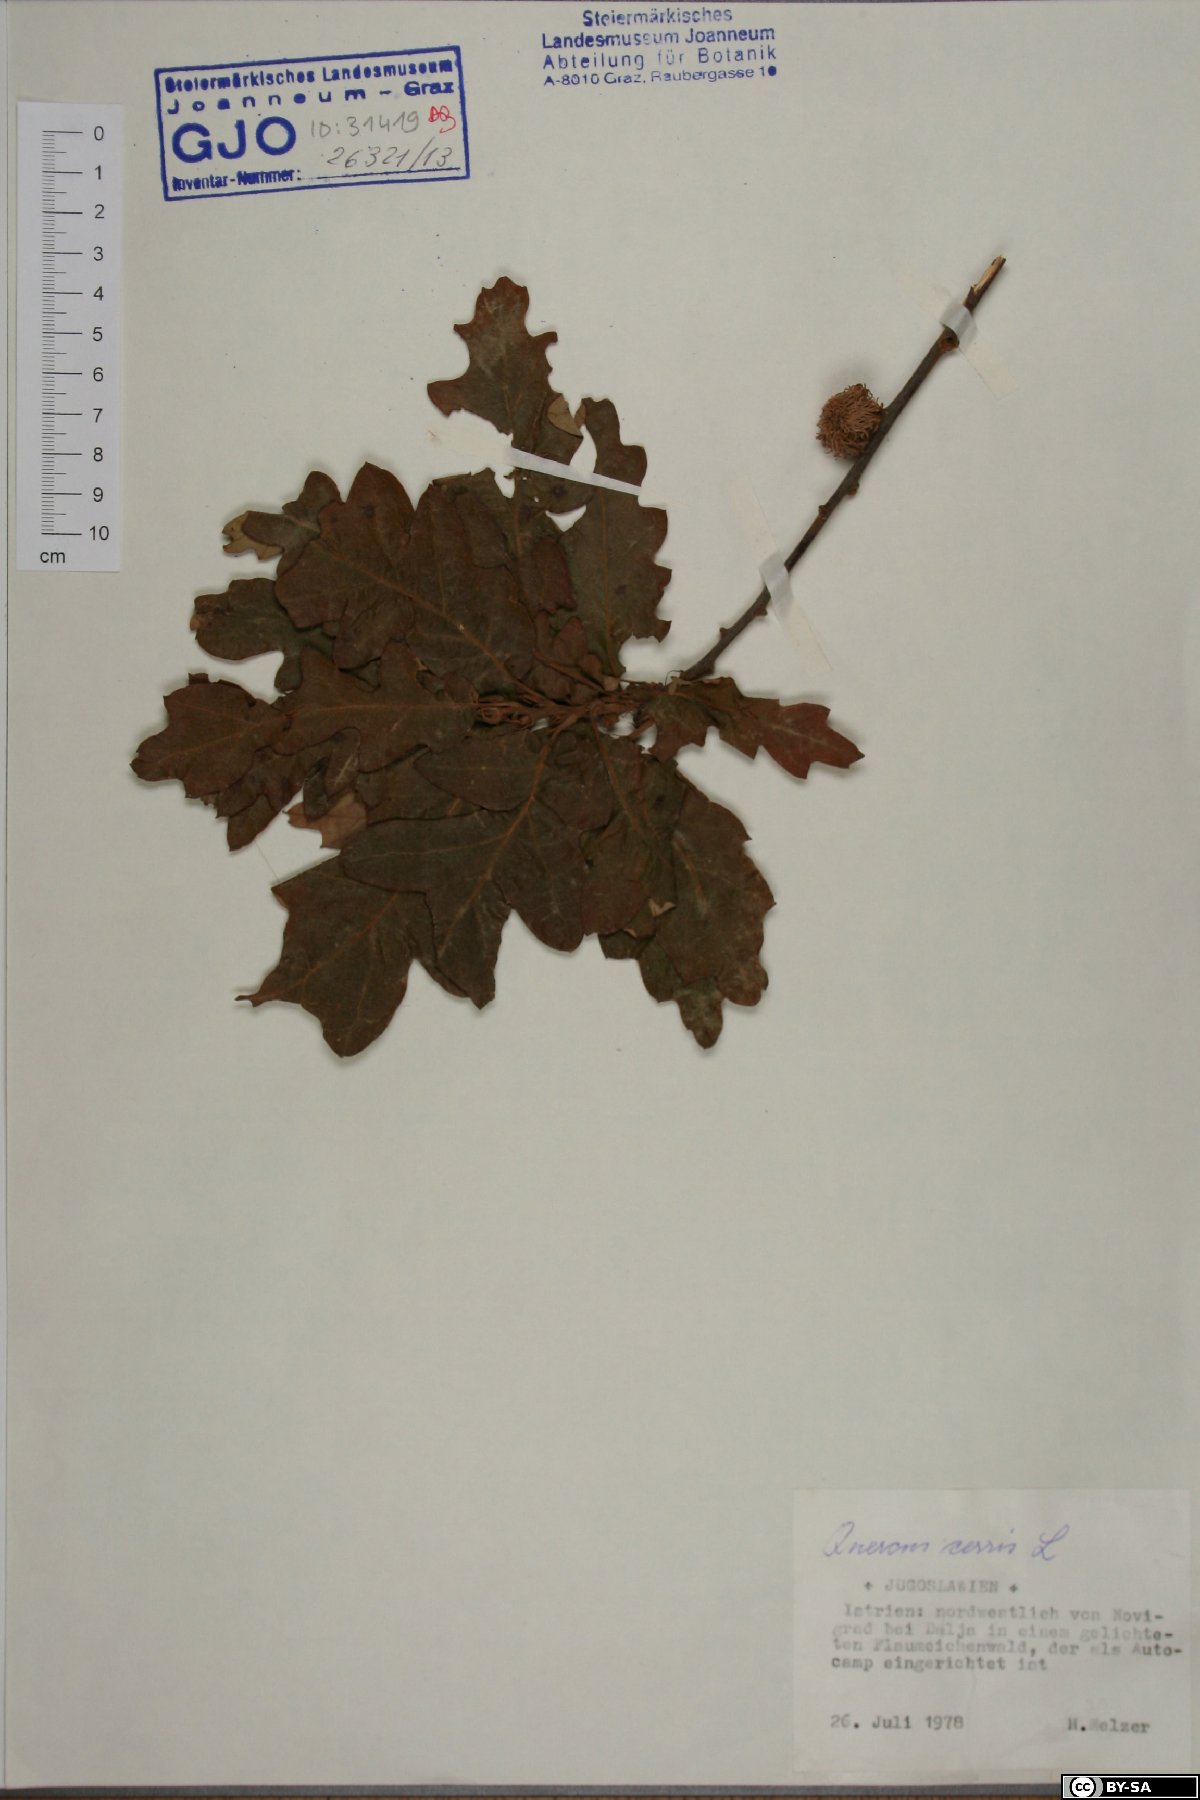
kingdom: Plantae
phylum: Tracheophyta
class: Magnoliopsida
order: Fagales
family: Fagaceae
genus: Quercus
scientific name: Quercus cerris
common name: Turkey oak
